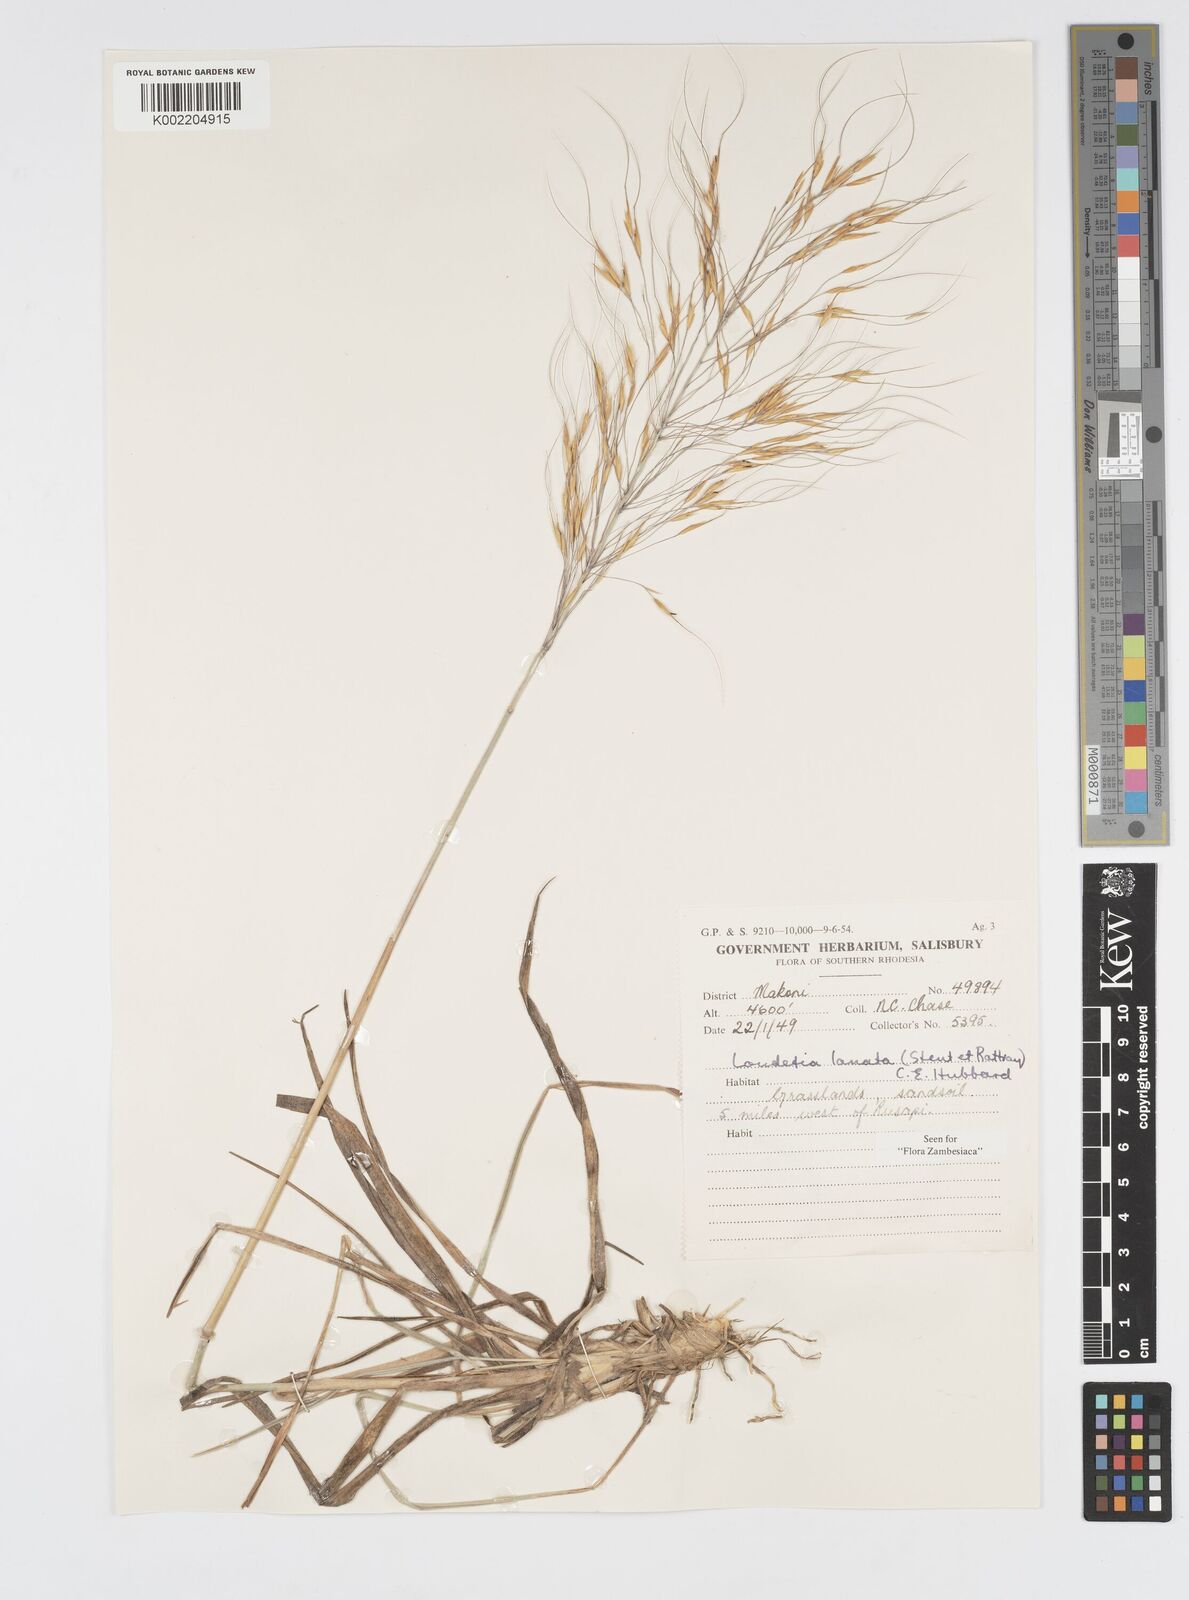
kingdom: Plantae
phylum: Tracheophyta
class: Liliopsida
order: Poales
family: Poaceae
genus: Loudetia
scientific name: Loudetia lanata
